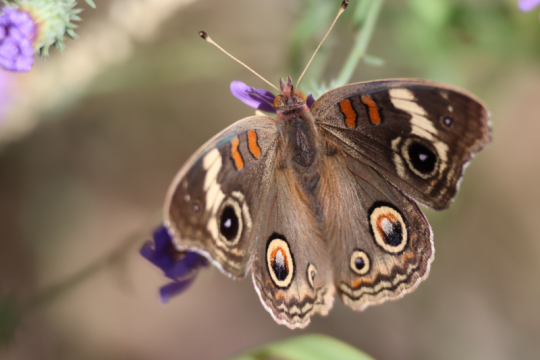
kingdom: Animalia
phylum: Arthropoda
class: Insecta
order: Lepidoptera
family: Nymphalidae
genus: Junonia
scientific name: Junonia coenia
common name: Common Buckeye
